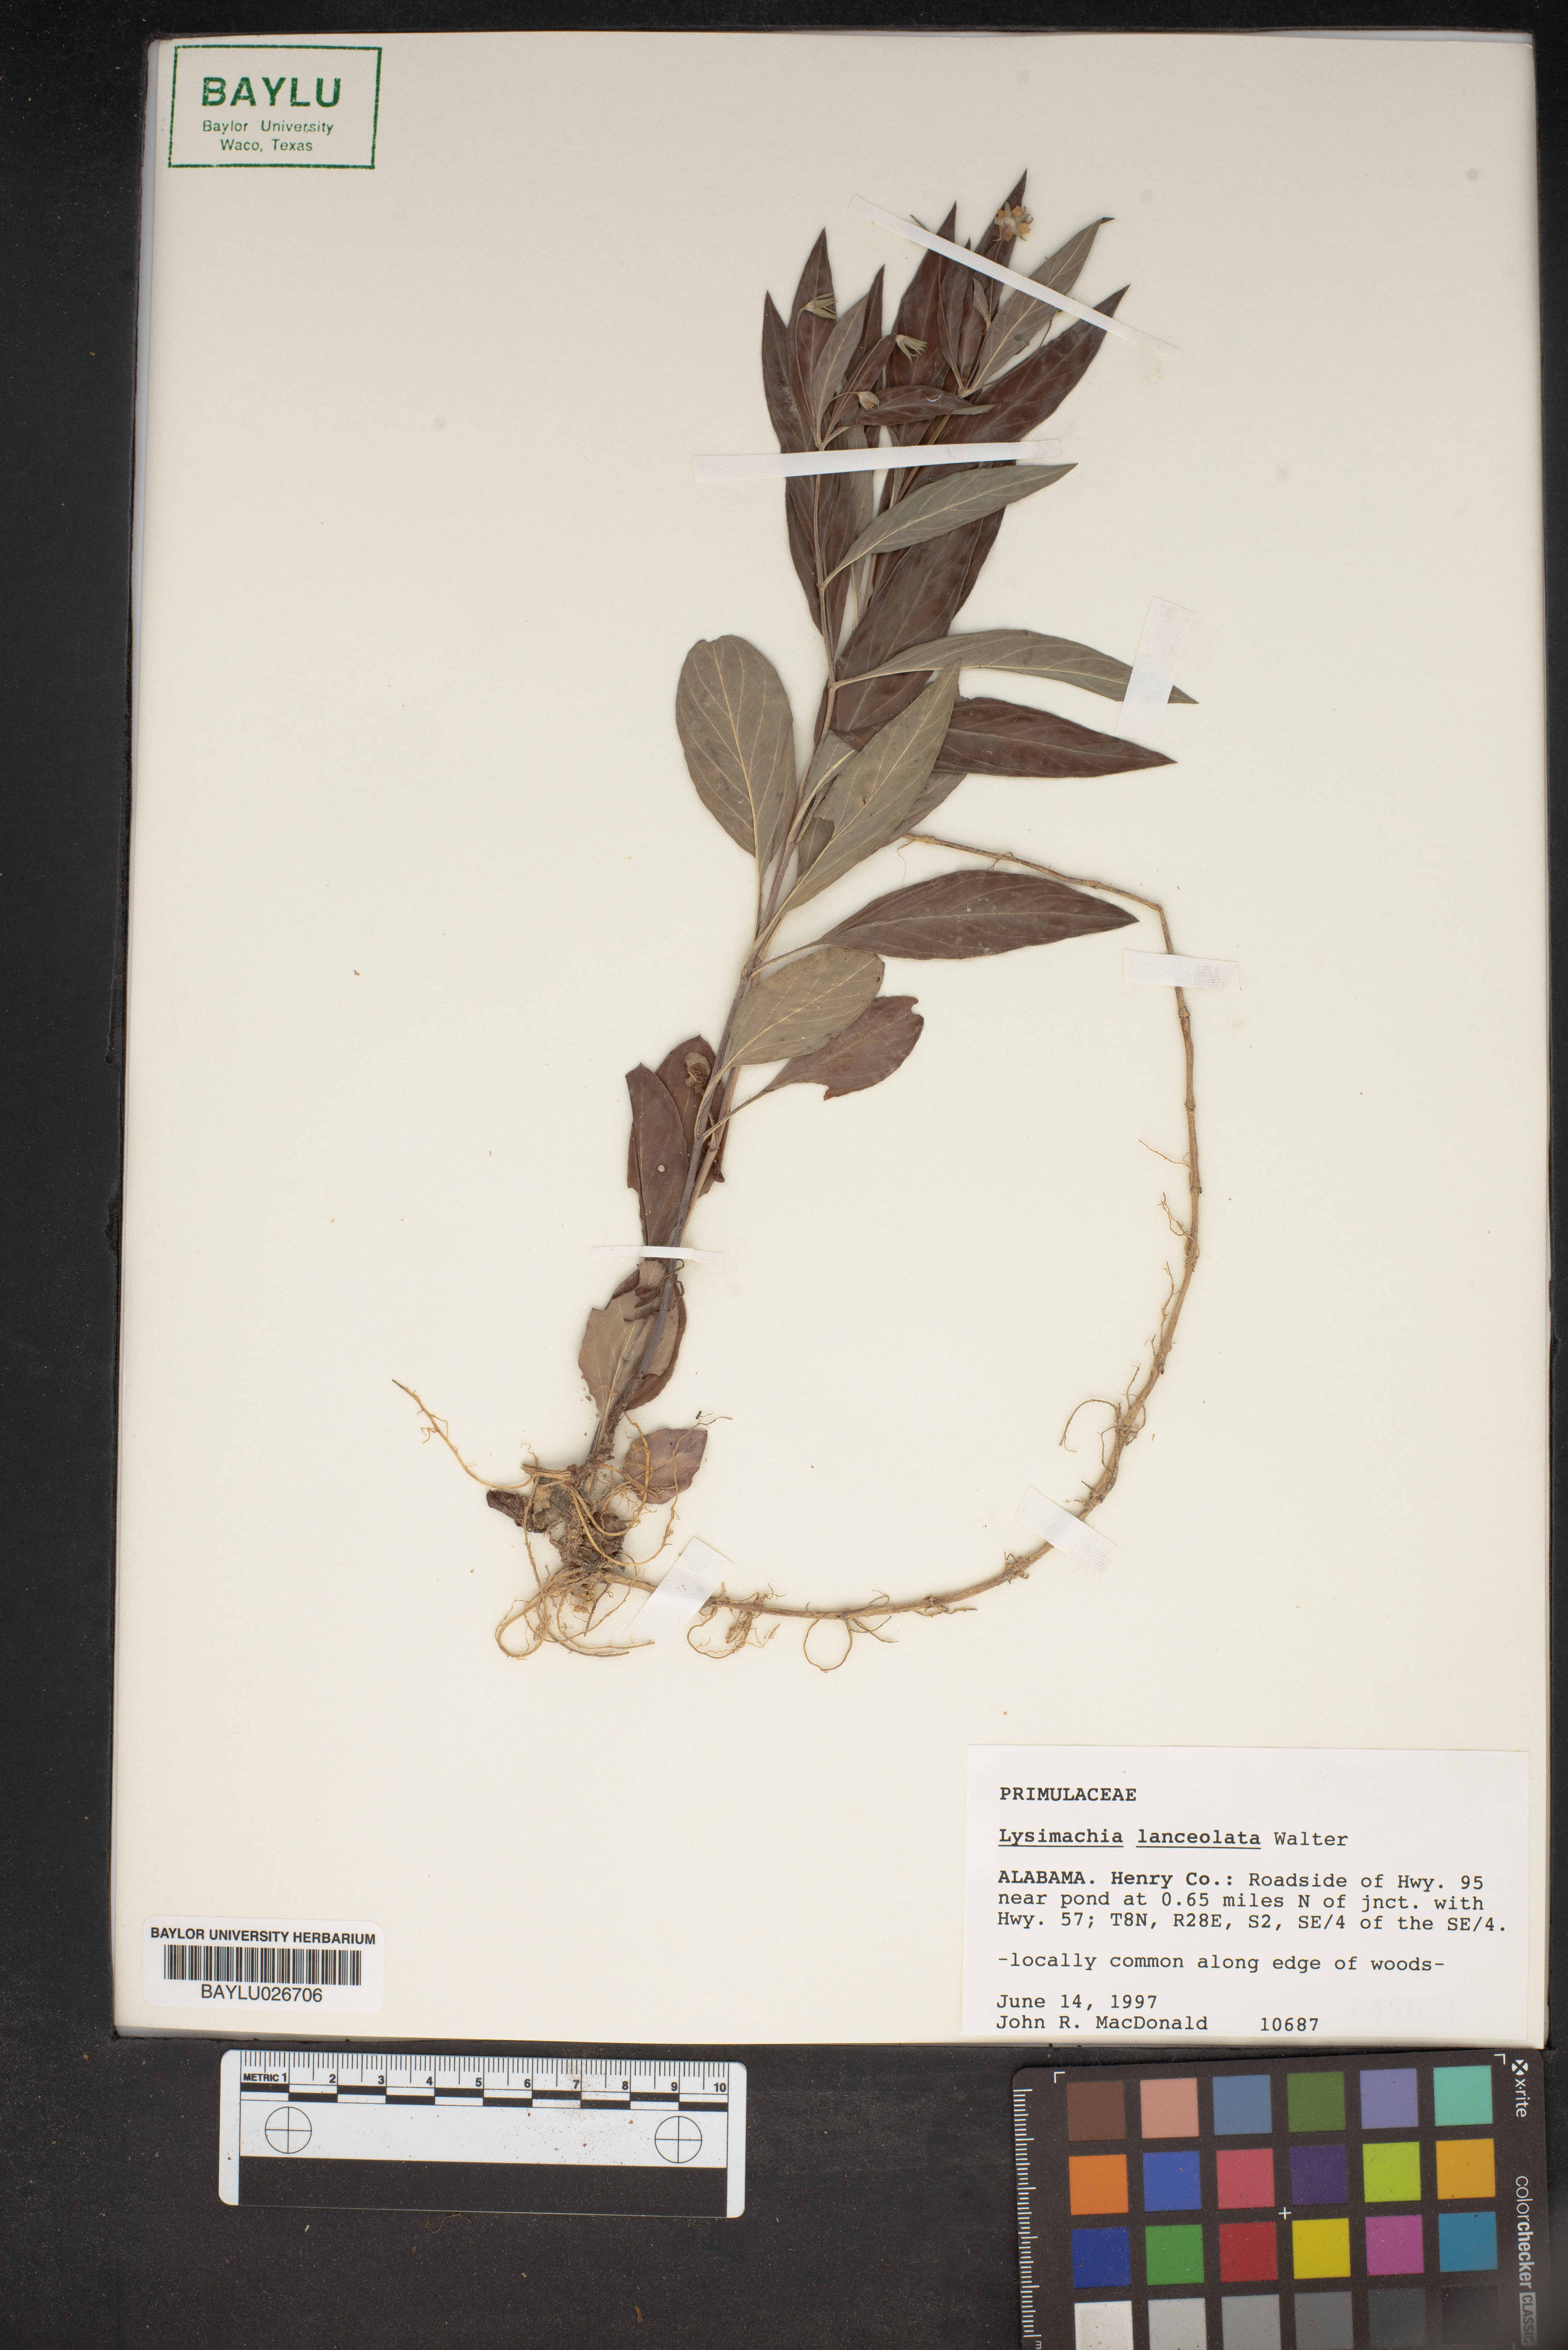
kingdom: Plantae
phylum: Tracheophyta
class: Magnoliopsida
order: Ericales
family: Primulaceae
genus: Lysimachia
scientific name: Lysimachia lanceolata
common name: Lance-leaved loosestrife
